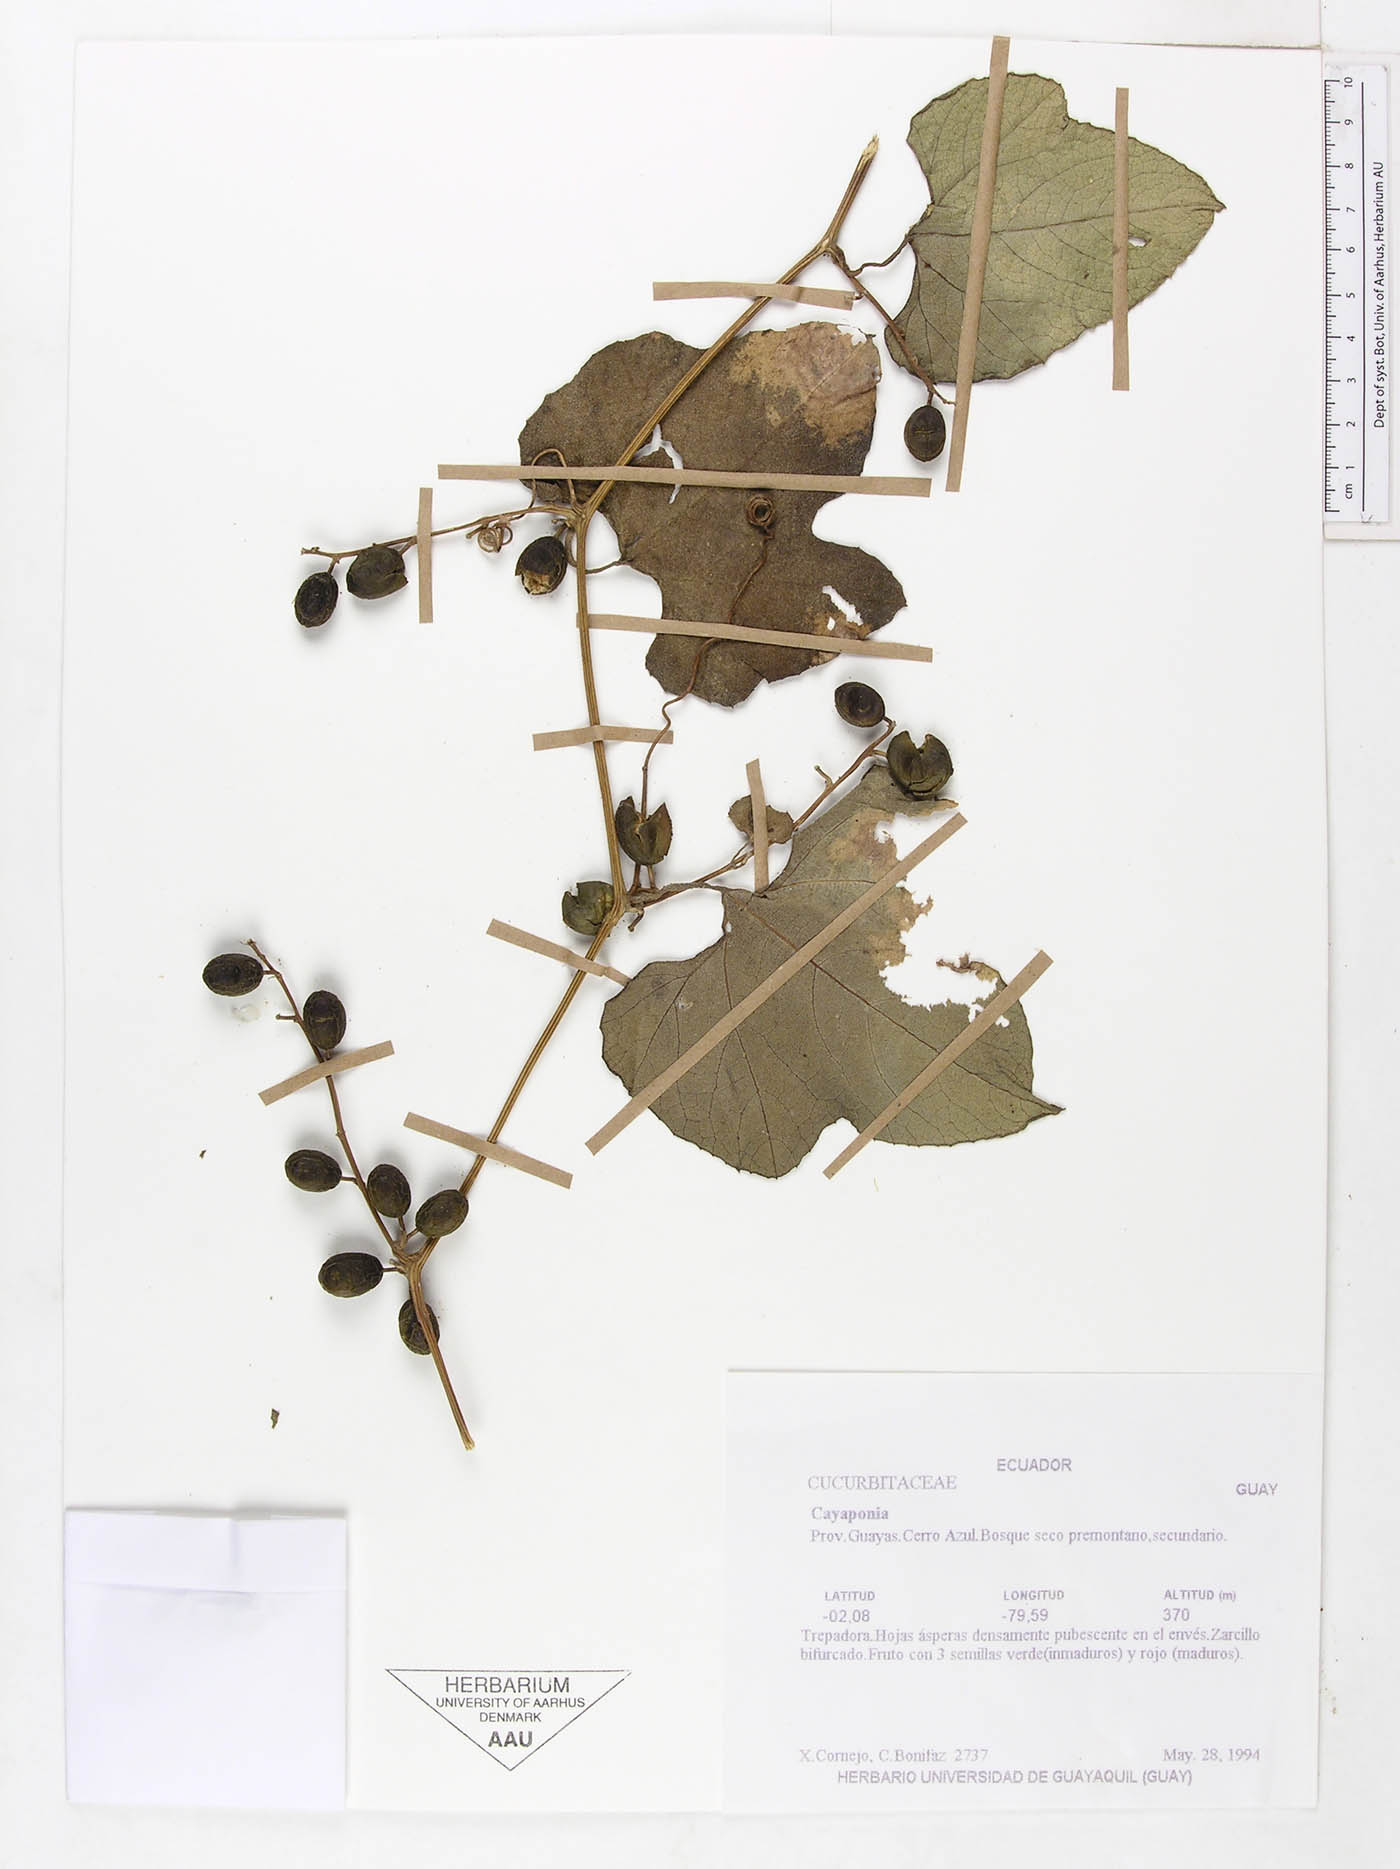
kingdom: Plantae
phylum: Tracheophyta
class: Magnoliopsida
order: Cucurbitales
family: Cucurbitaceae
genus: Cayaponia
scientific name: Cayaponia glandulosa
